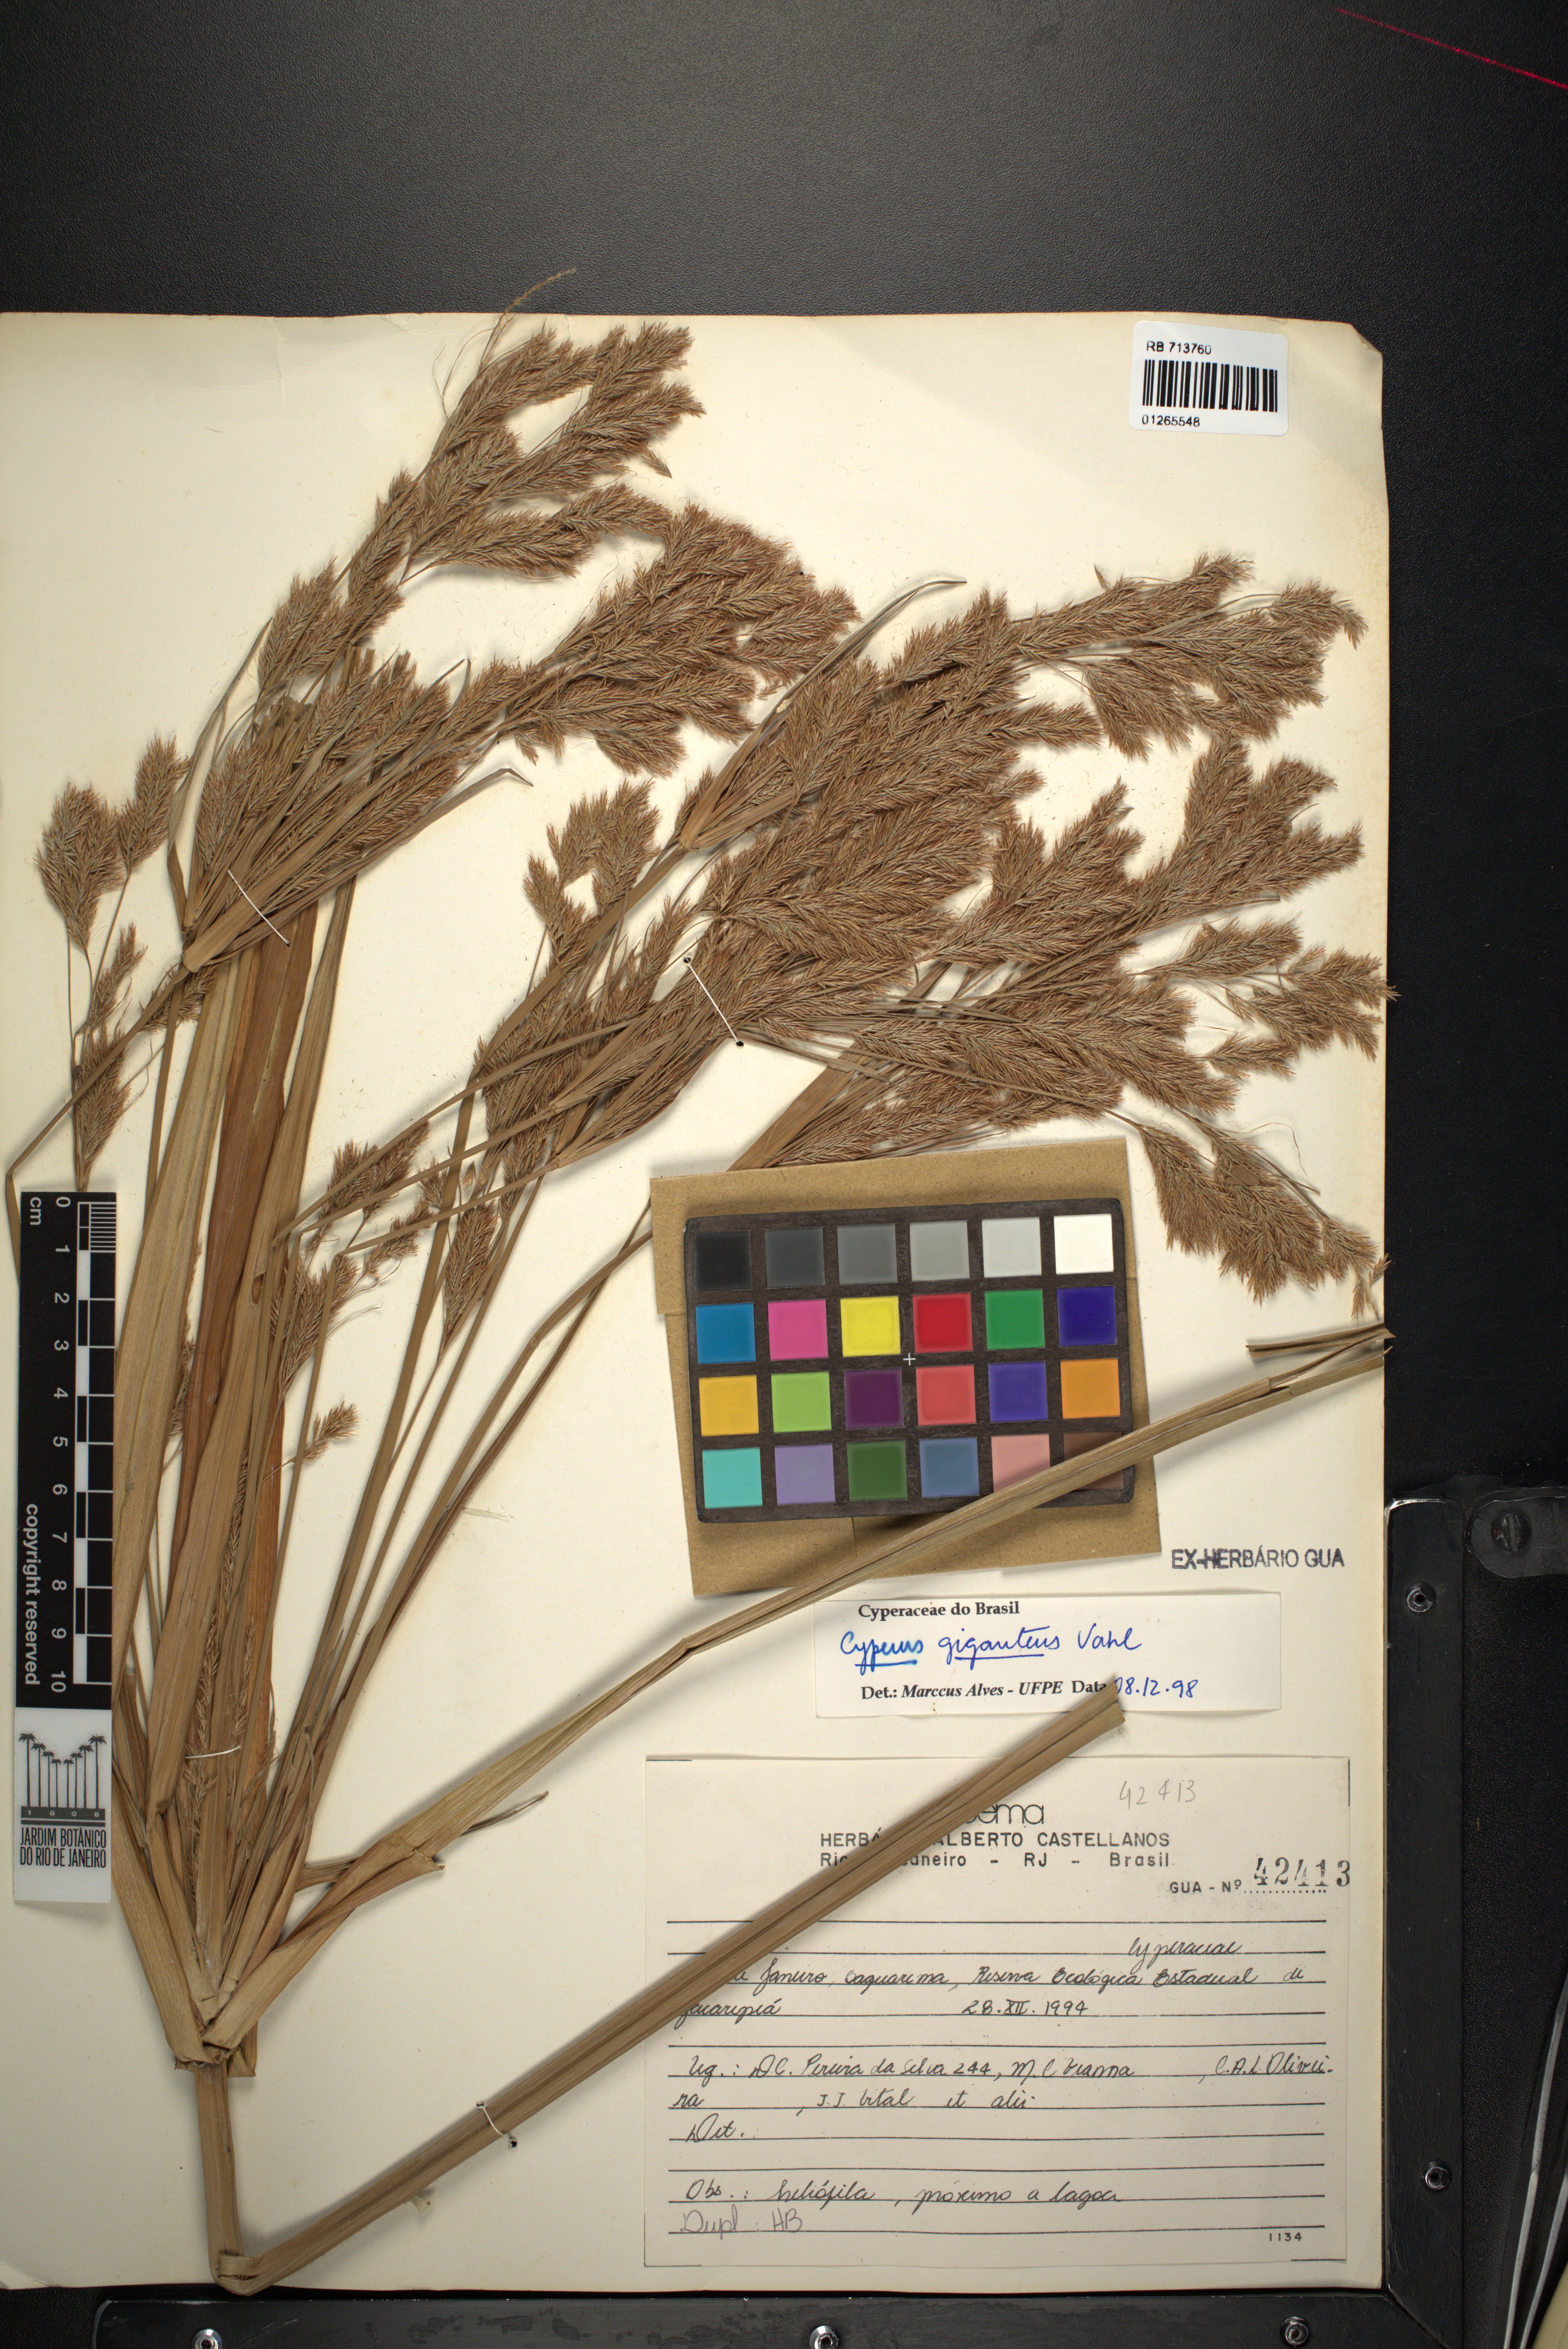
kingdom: Plantae
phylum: Tracheophyta
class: Liliopsida
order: Poales
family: Cyperaceae
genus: Cyperus
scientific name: Cyperus giganteus
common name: Giant flat sedge
